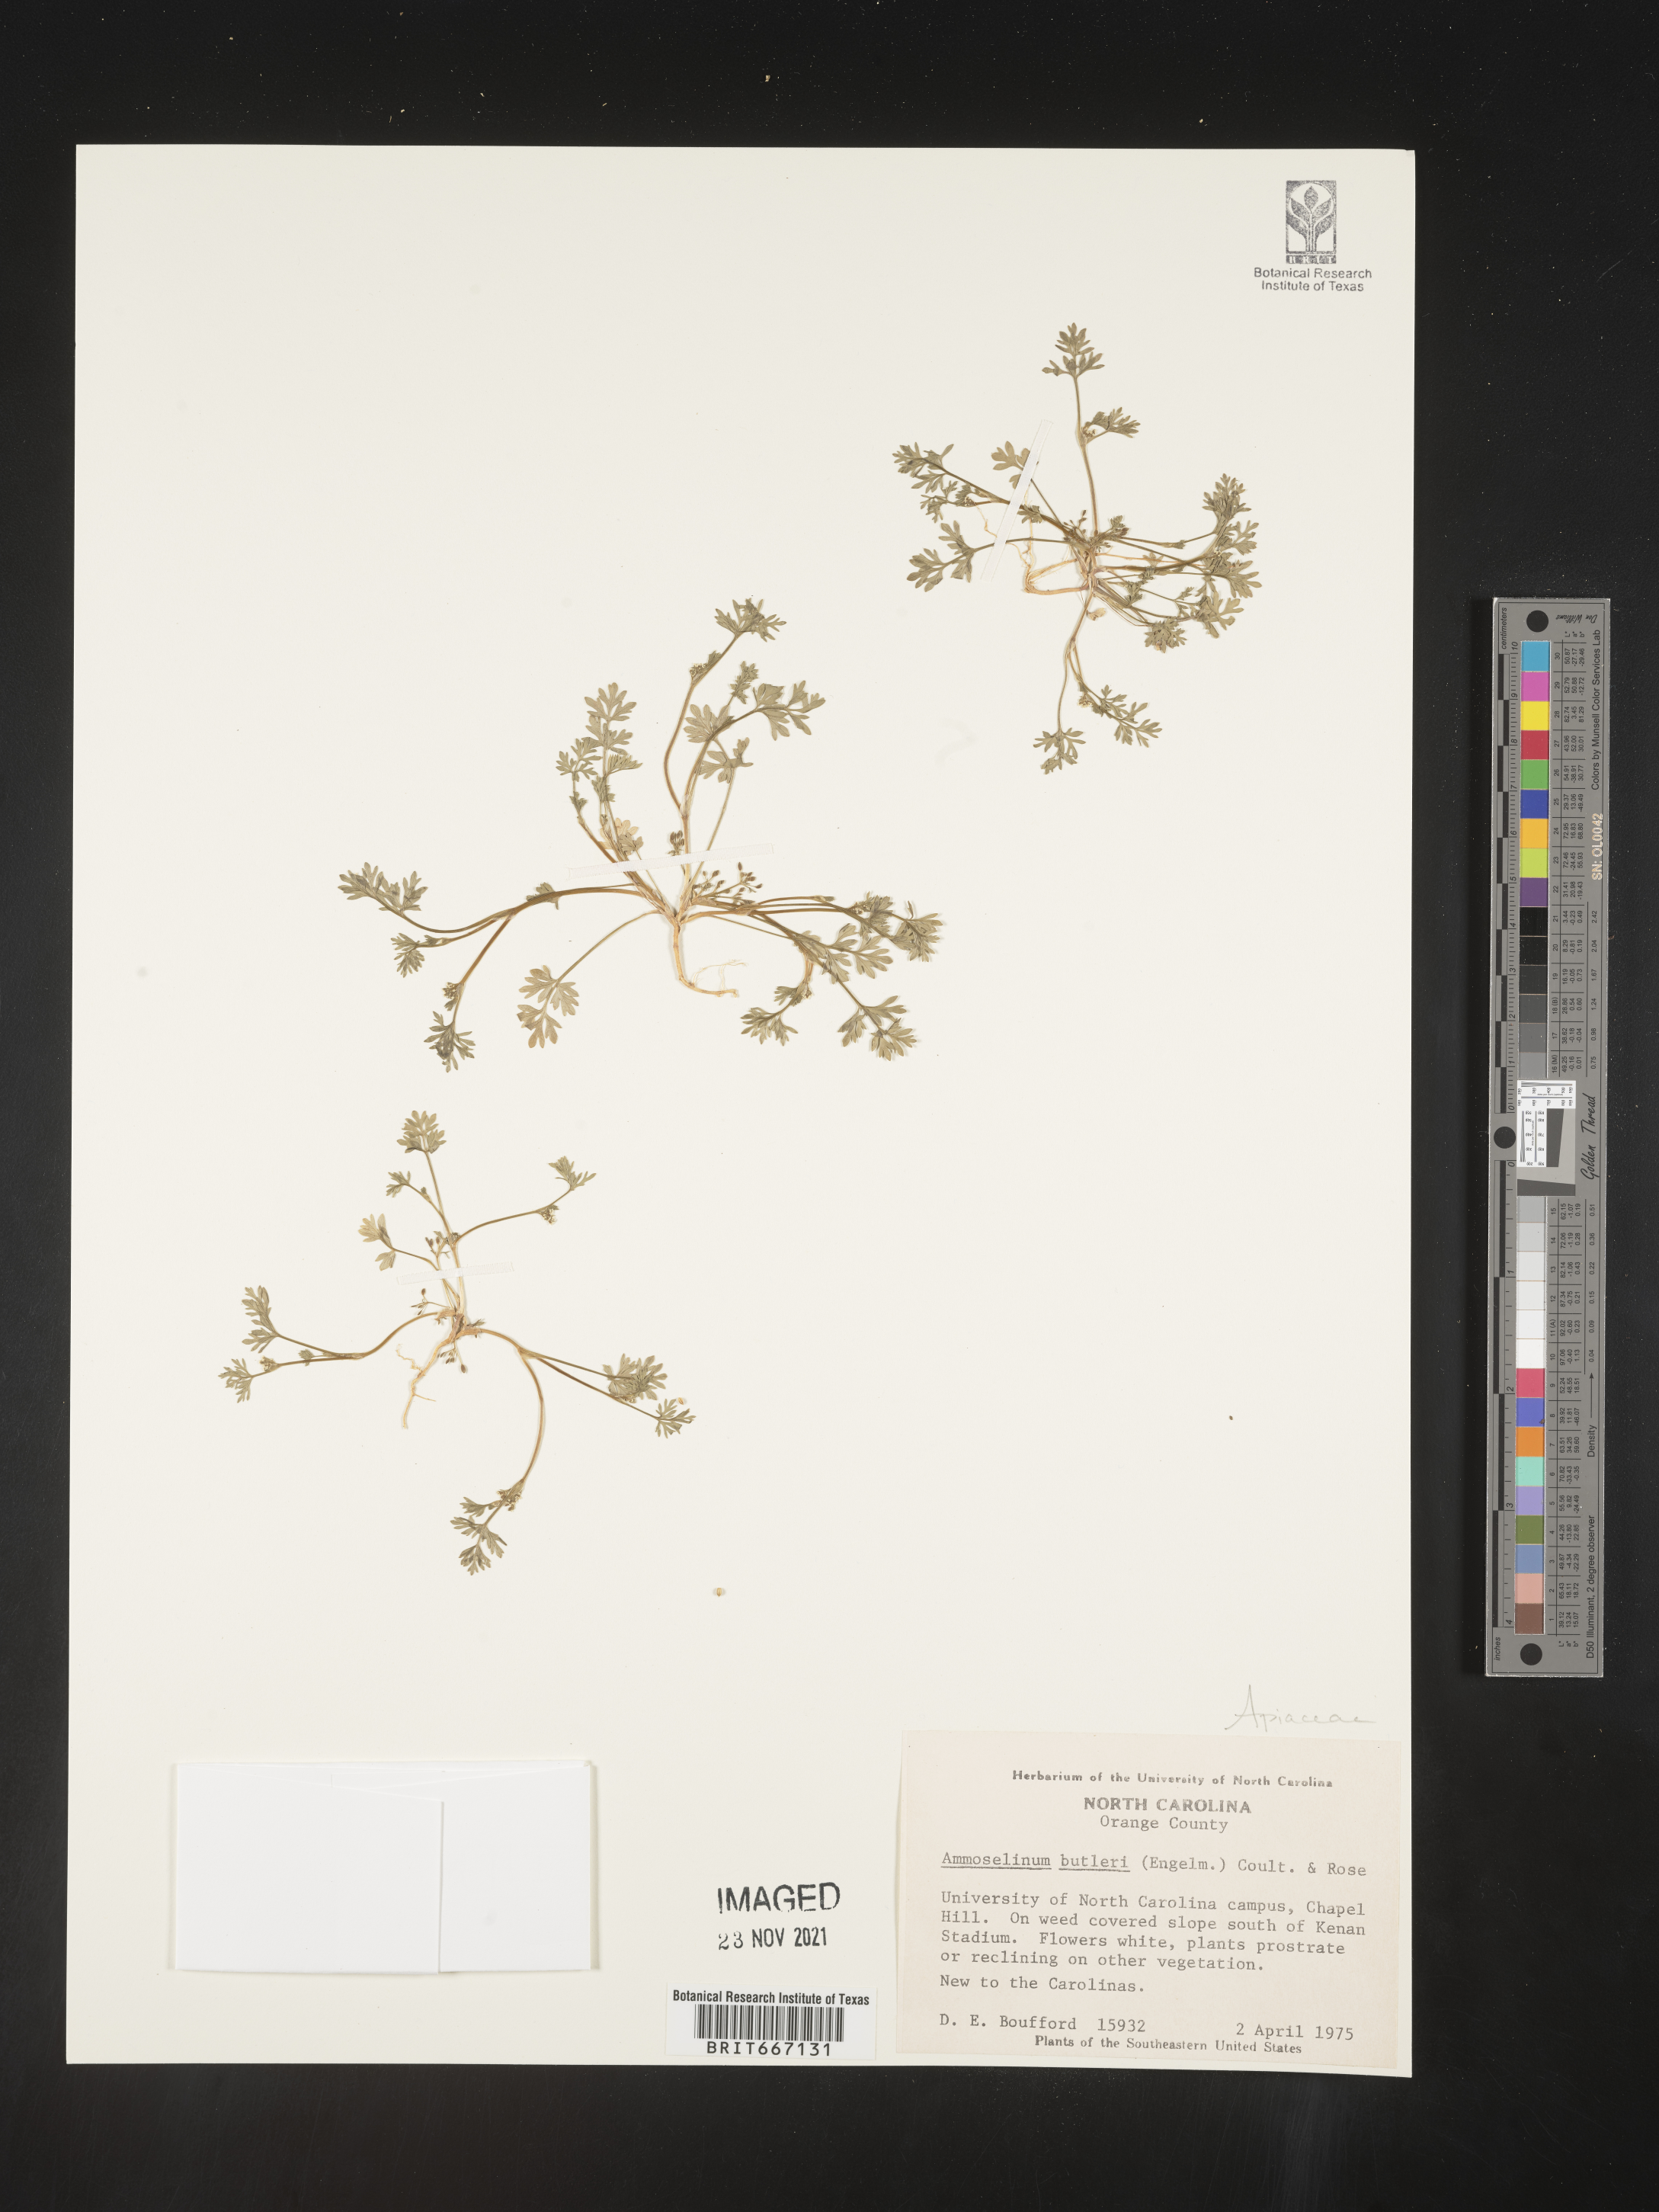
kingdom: Plantae
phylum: Tracheophyta
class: Magnoliopsida
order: Apiales
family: Apiaceae
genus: Ammoselinum
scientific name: Ammoselinum butleri
